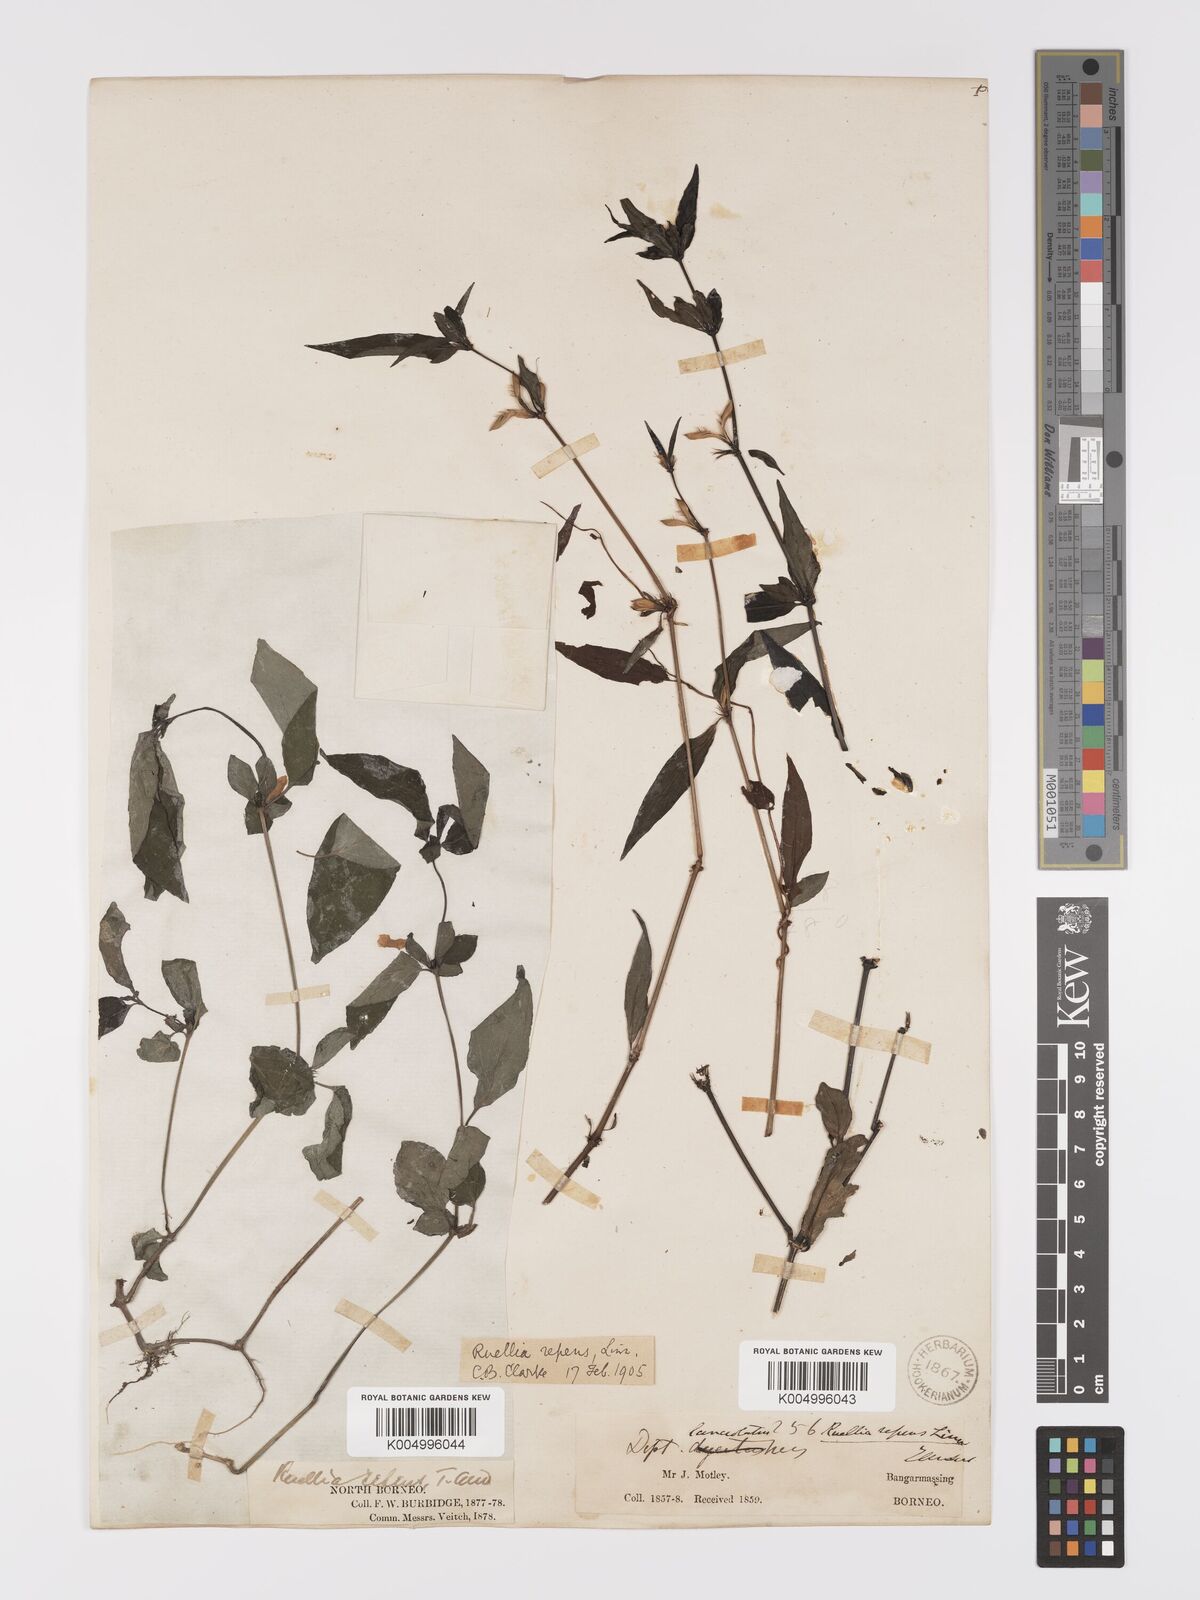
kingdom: Plantae
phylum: Tracheophyta
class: Magnoliopsida
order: Lamiales
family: Acanthaceae
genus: Ruellia
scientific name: Ruellia
